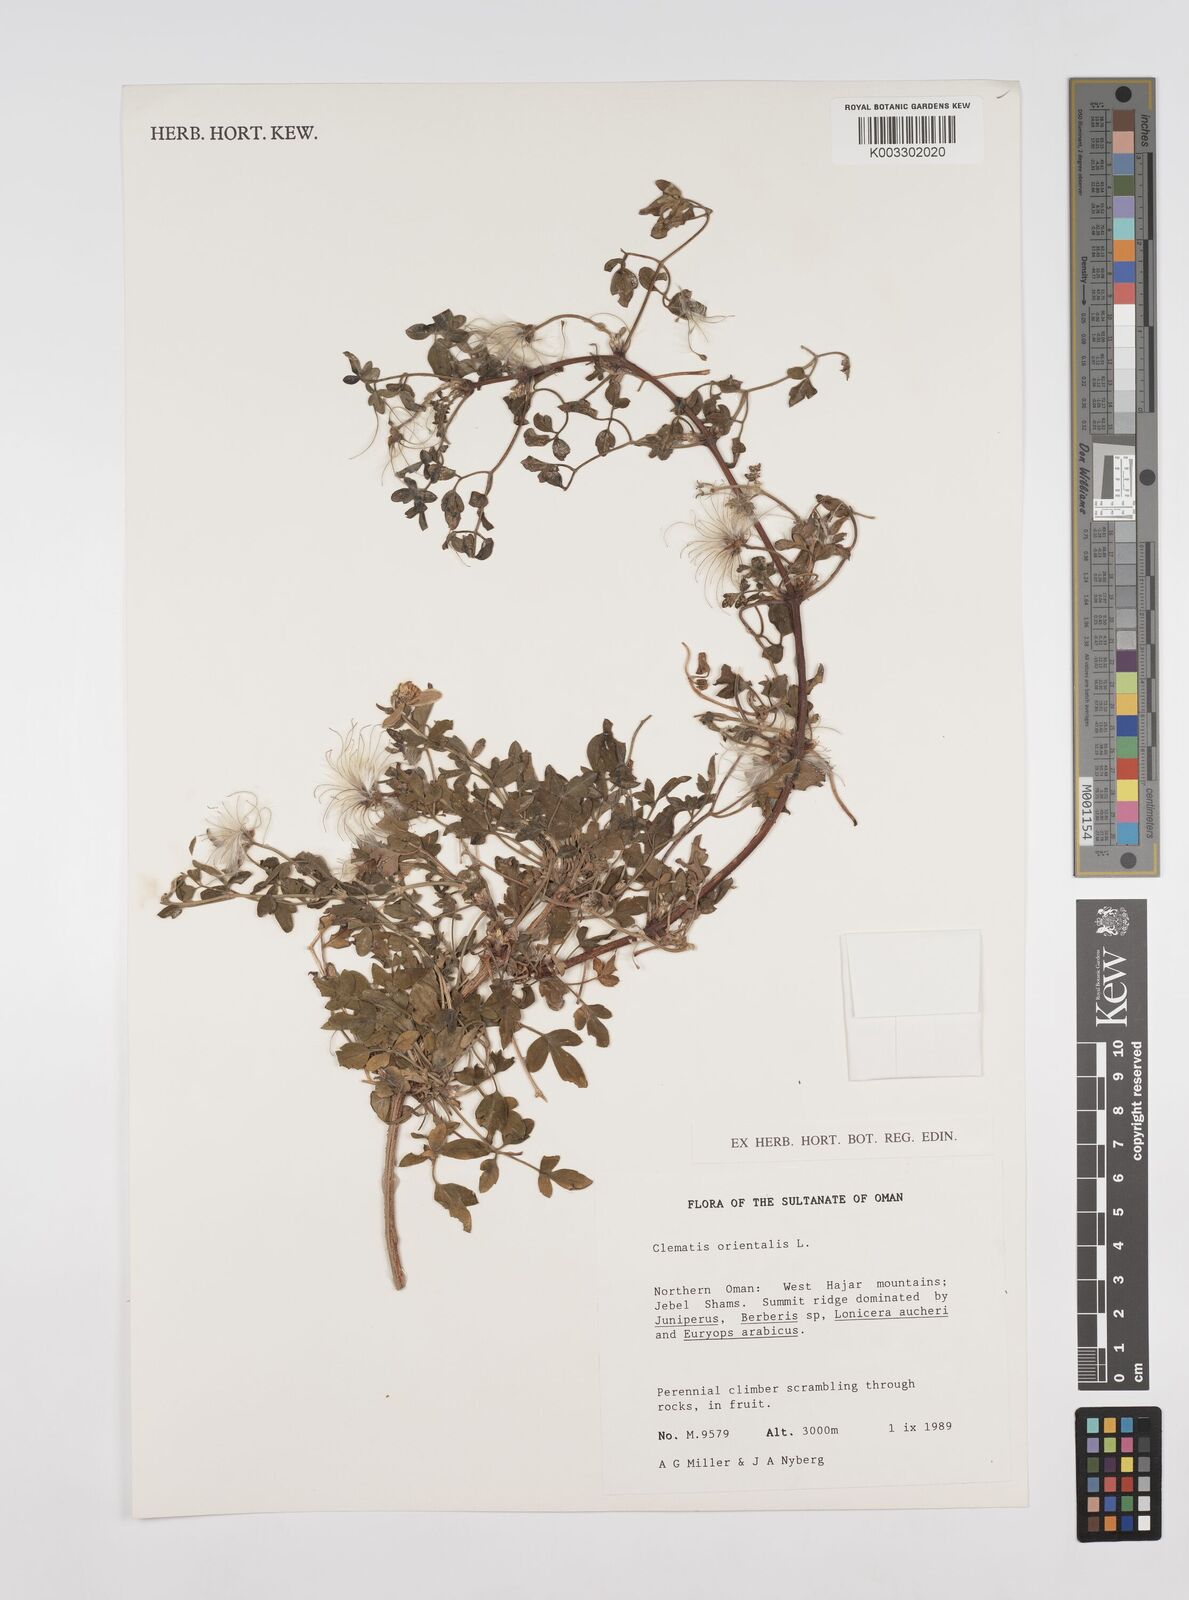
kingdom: Plantae
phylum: Tracheophyta
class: Magnoliopsida
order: Ranunculales
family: Ranunculaceae
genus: Clematis
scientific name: Clematis orientalis
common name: Oriental virgin's-bower
